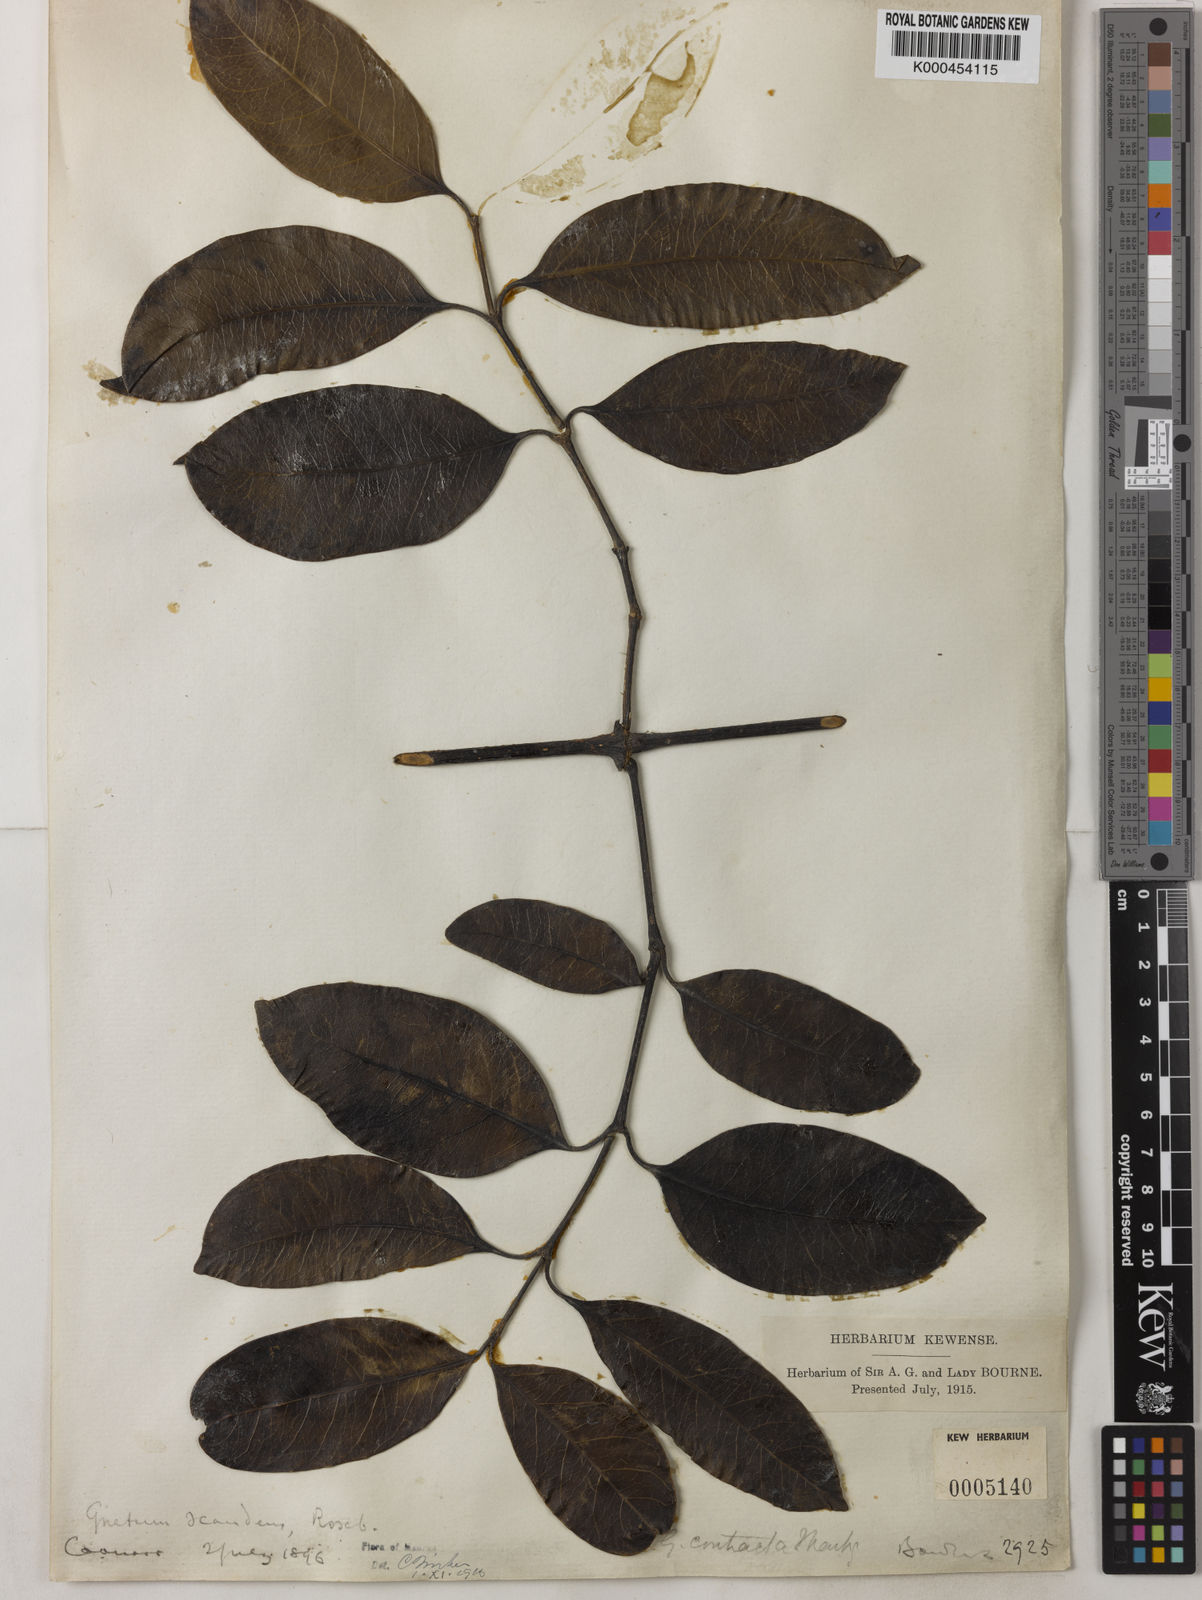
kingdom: Plantae
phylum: Tracheophyta
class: Gnetopsida
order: Gnetales
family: Gnetaceae
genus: Gnetum
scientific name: Gnetum contractum
